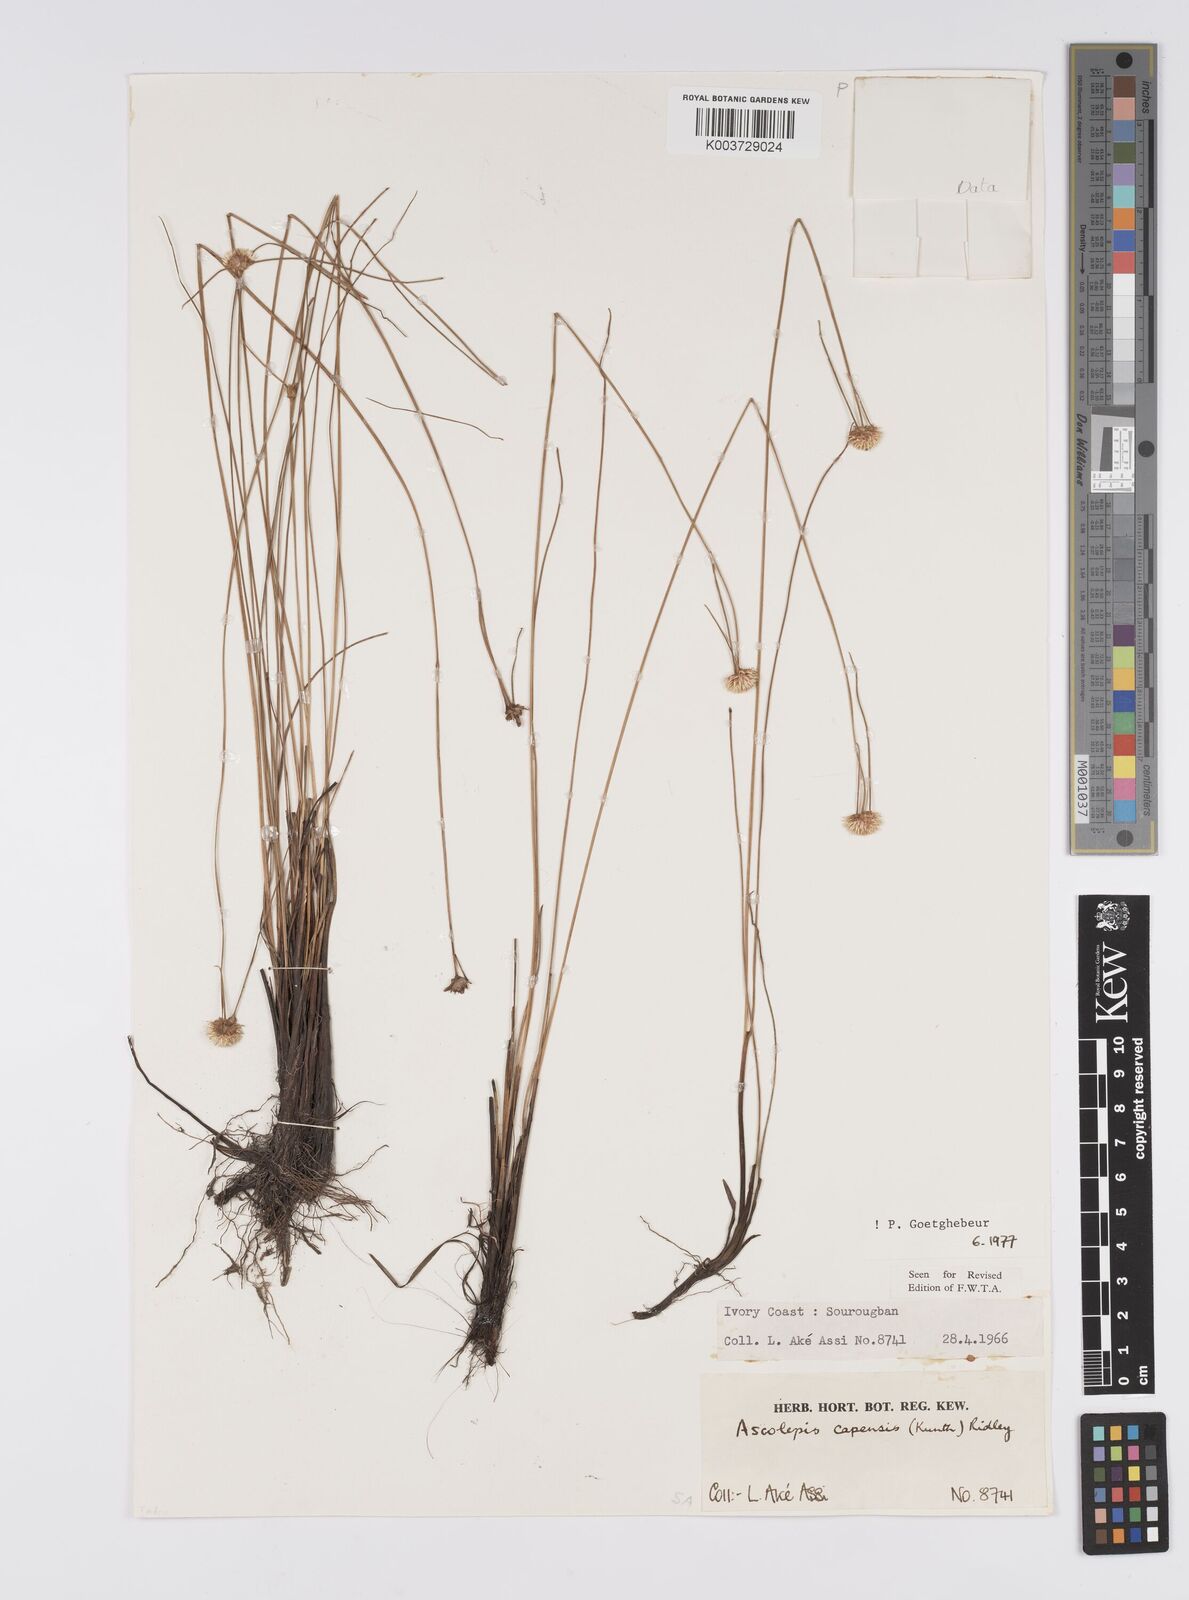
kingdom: Plantae
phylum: Tracheophyta
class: Liliopsida
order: Poales
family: Cyperaceae
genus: Ascolepis
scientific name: Ascolepis
